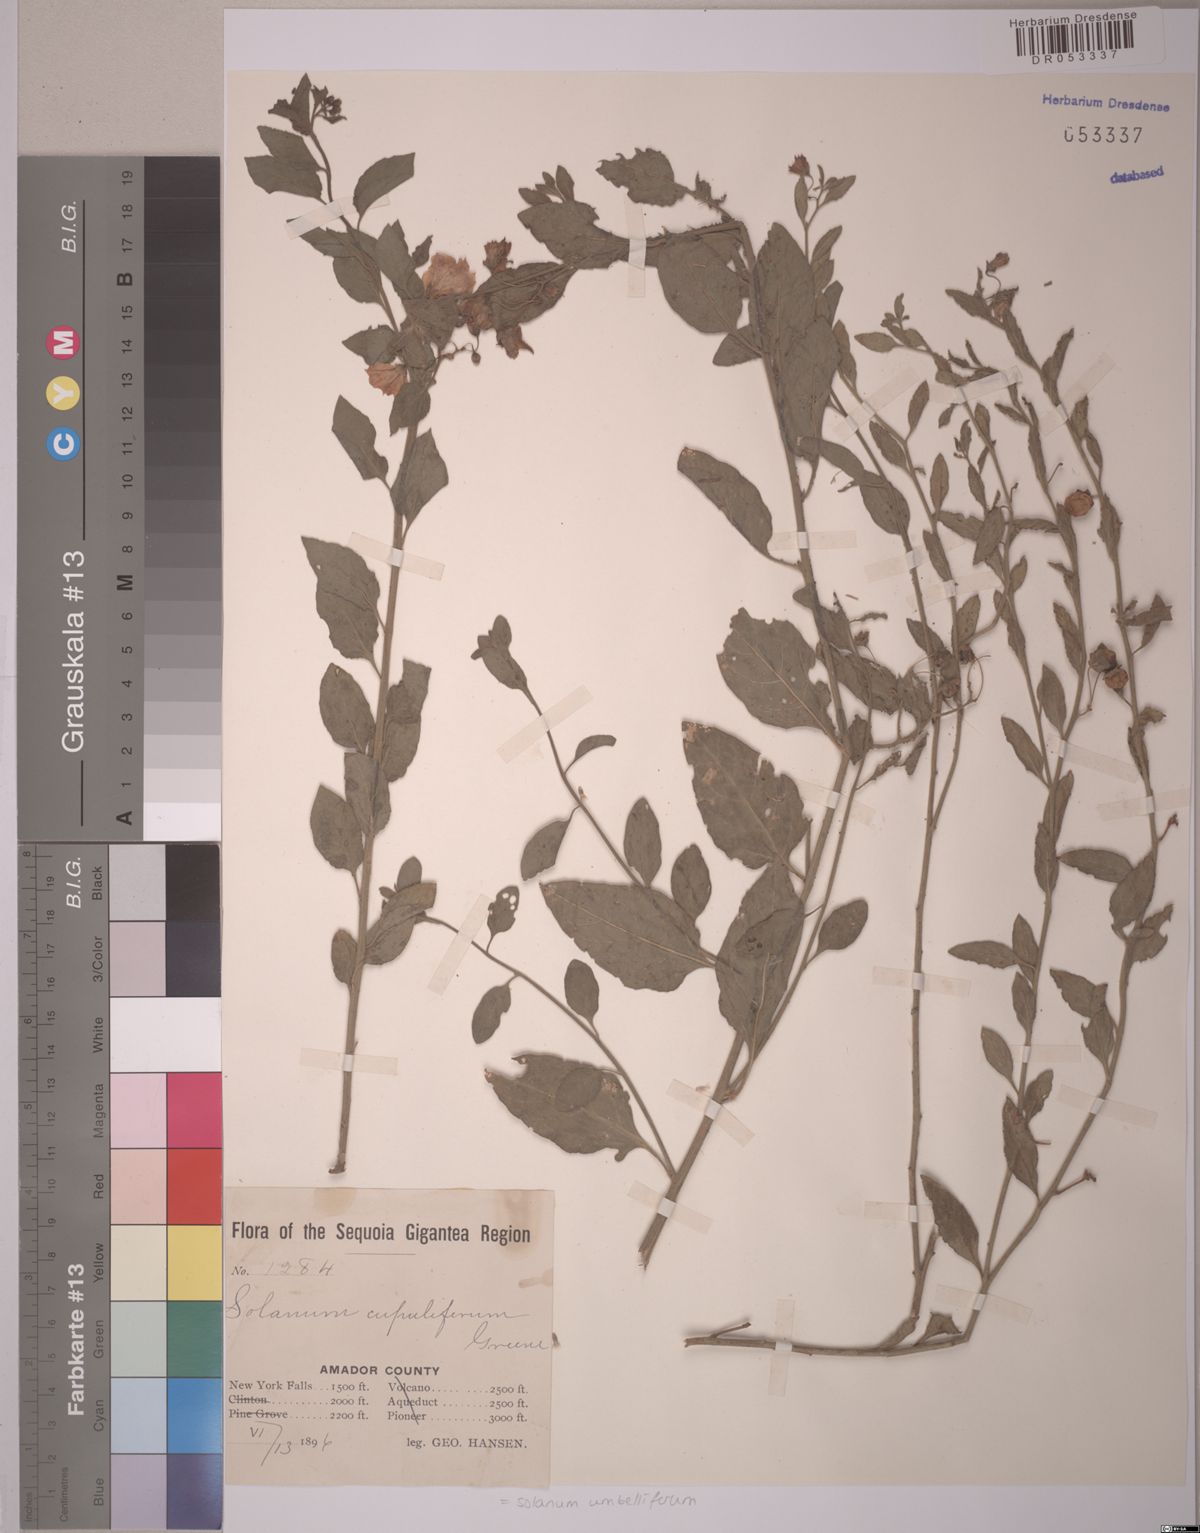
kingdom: Plantae
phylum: Tracheophyta
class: Magnoliopsida
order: Solanales
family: Solanaceae
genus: Solanum
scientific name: Solanum umbelliferum
